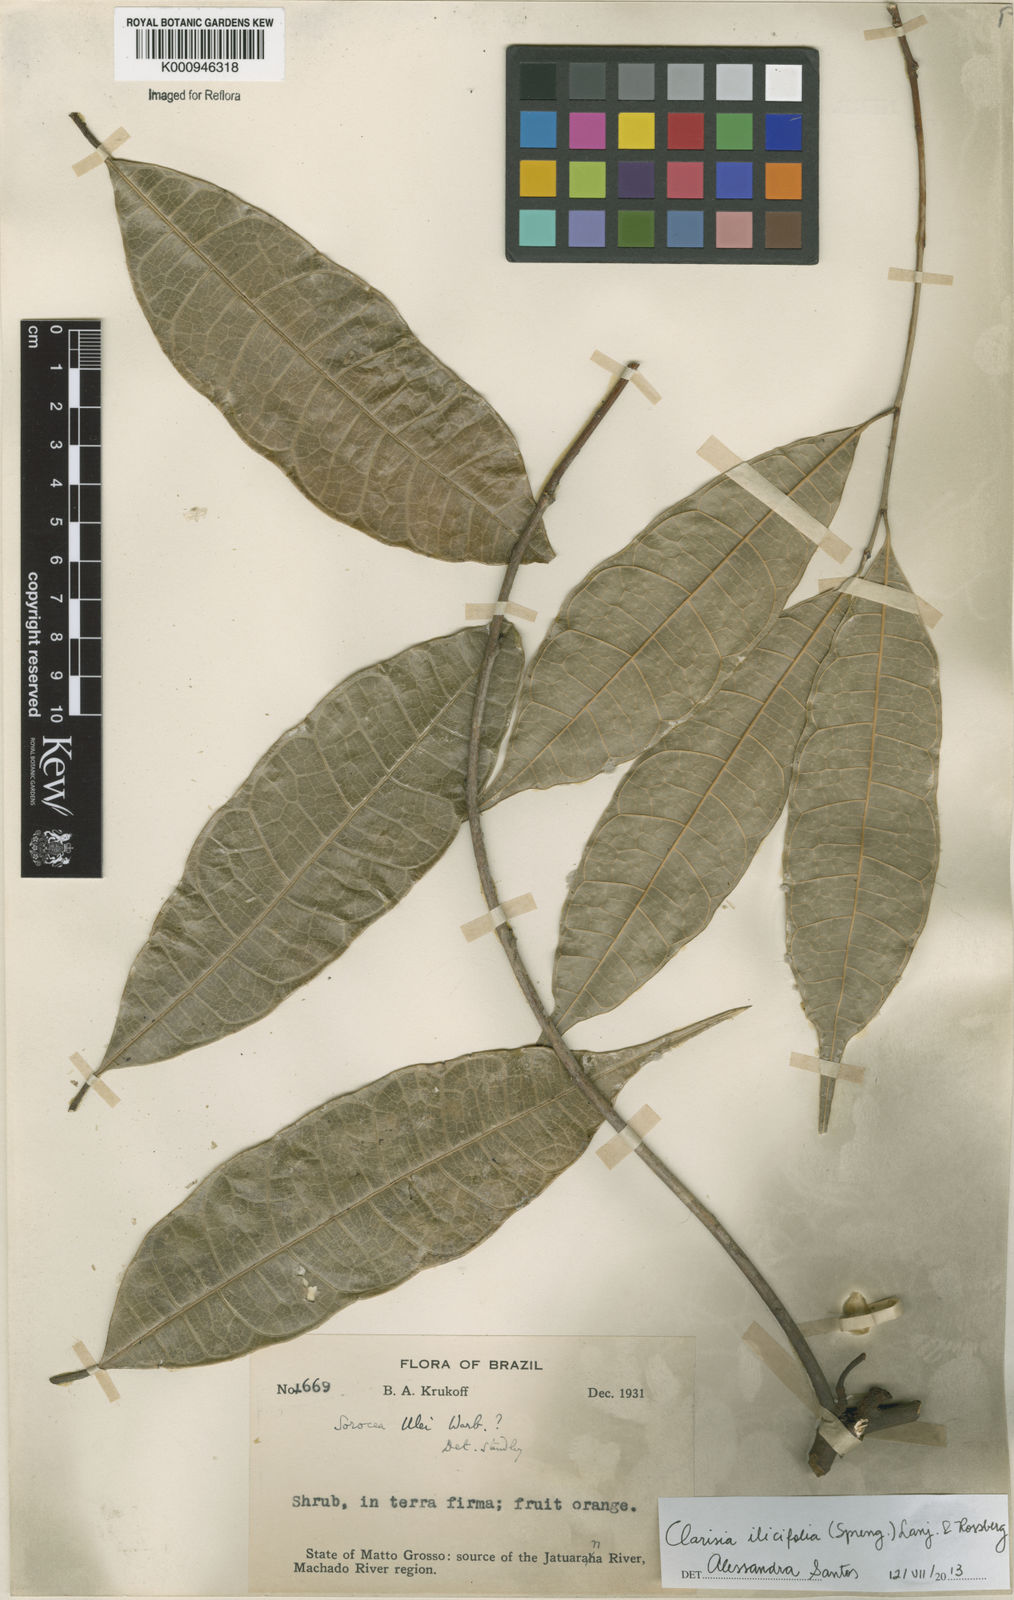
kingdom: Plantae
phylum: Tracheophyta
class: Magnoliopsida
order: Rosales
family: Moraceae
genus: Clarisia
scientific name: Clarisia ilicifolia
